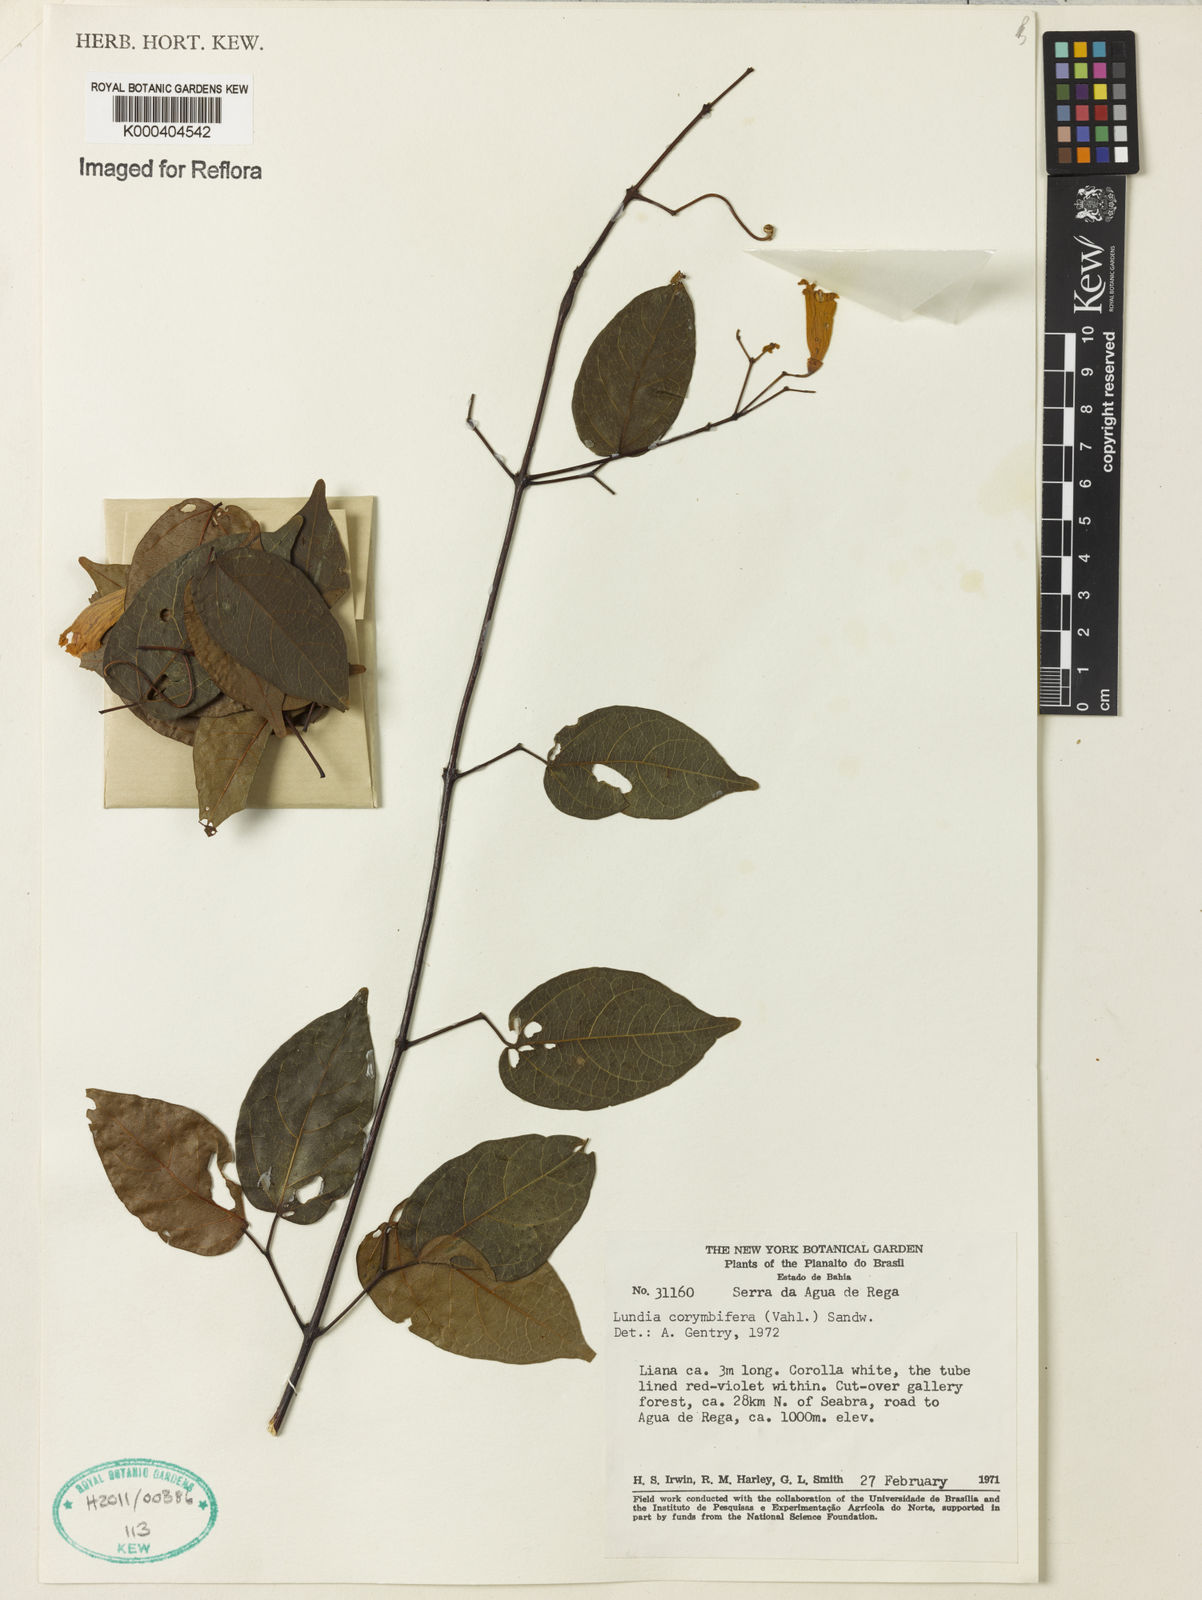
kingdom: Plantae
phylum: Tracheophyta
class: Magnoliopsida
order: Lamiales
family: Bignoniaceae
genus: Lundia
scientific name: Lundia corymbifera
